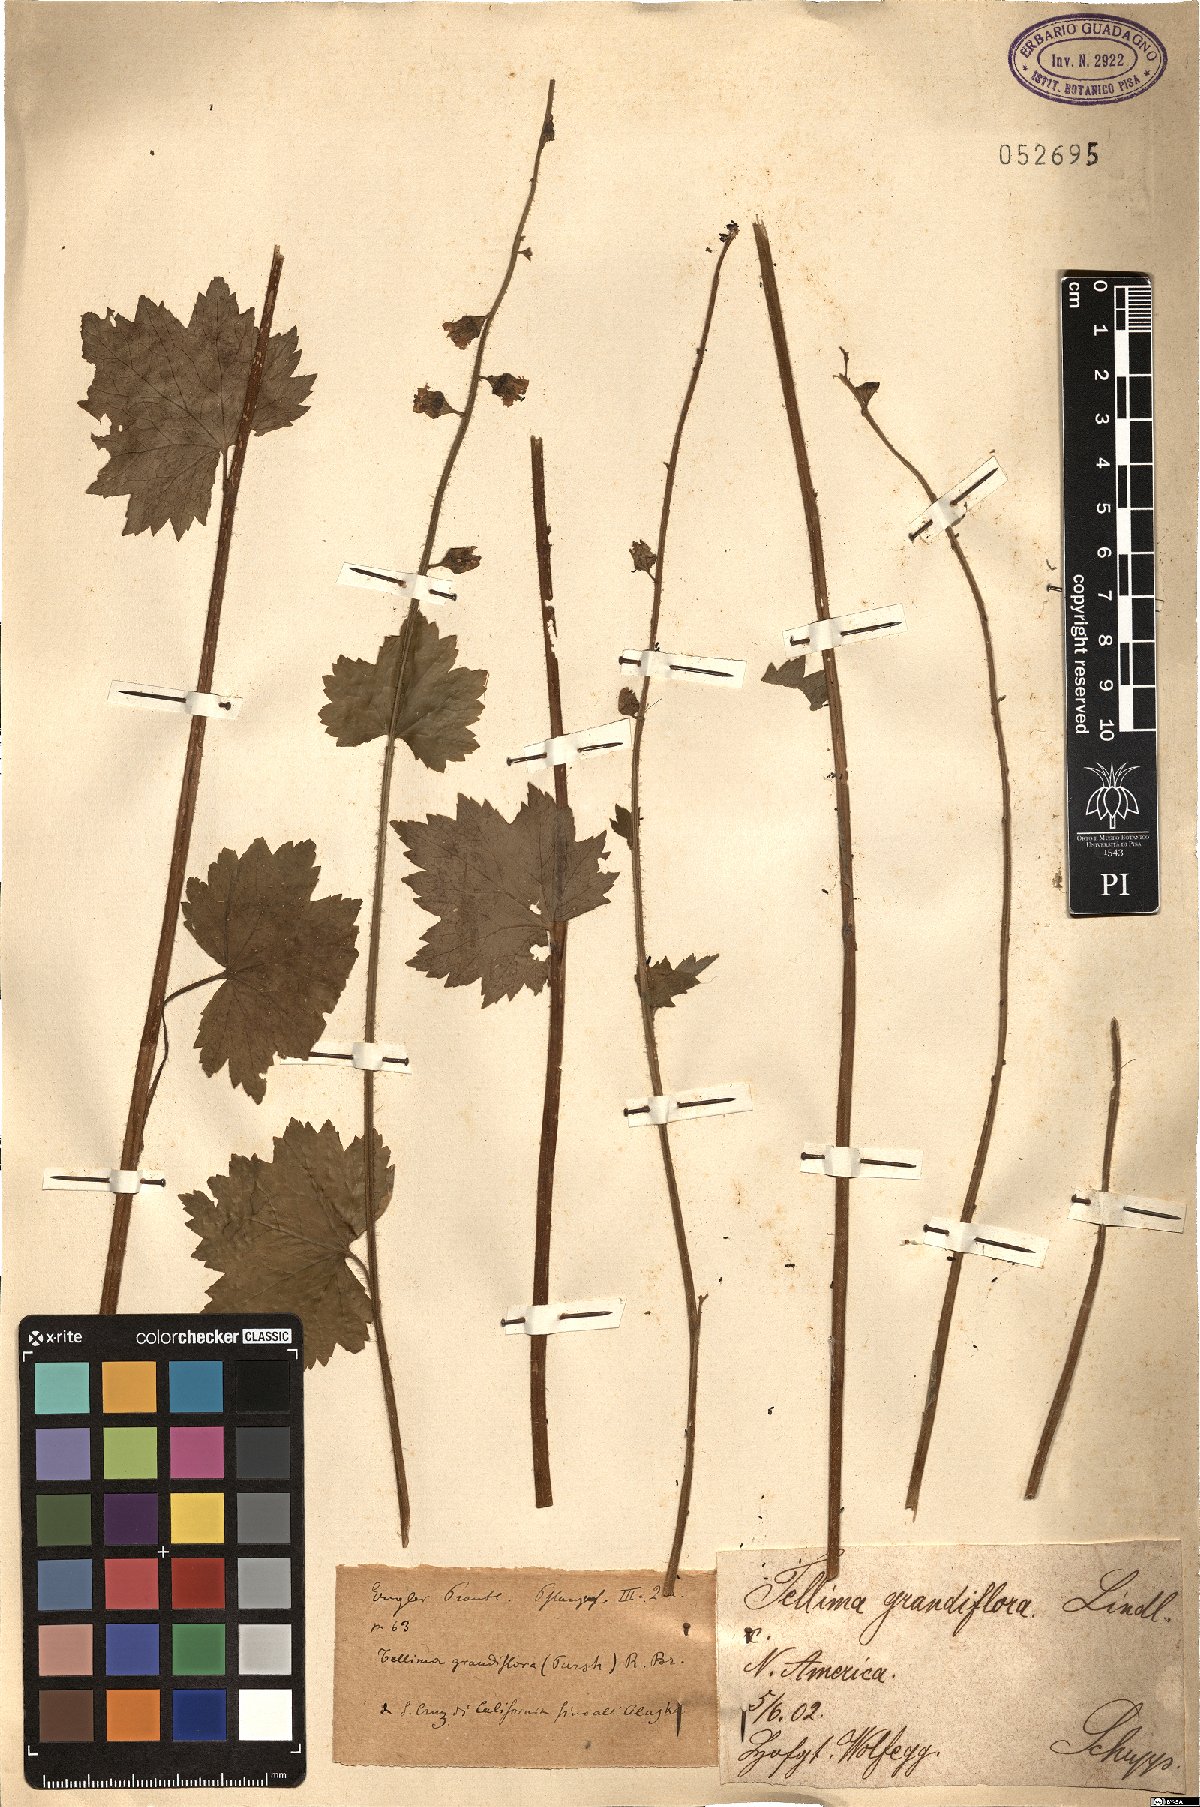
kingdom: Plantae
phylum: Tracheophyta
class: Magnoliopsida
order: Saxifragales
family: Saxifragaceae
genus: Tellima
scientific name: Tellima grandiflora
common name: Fringecups
